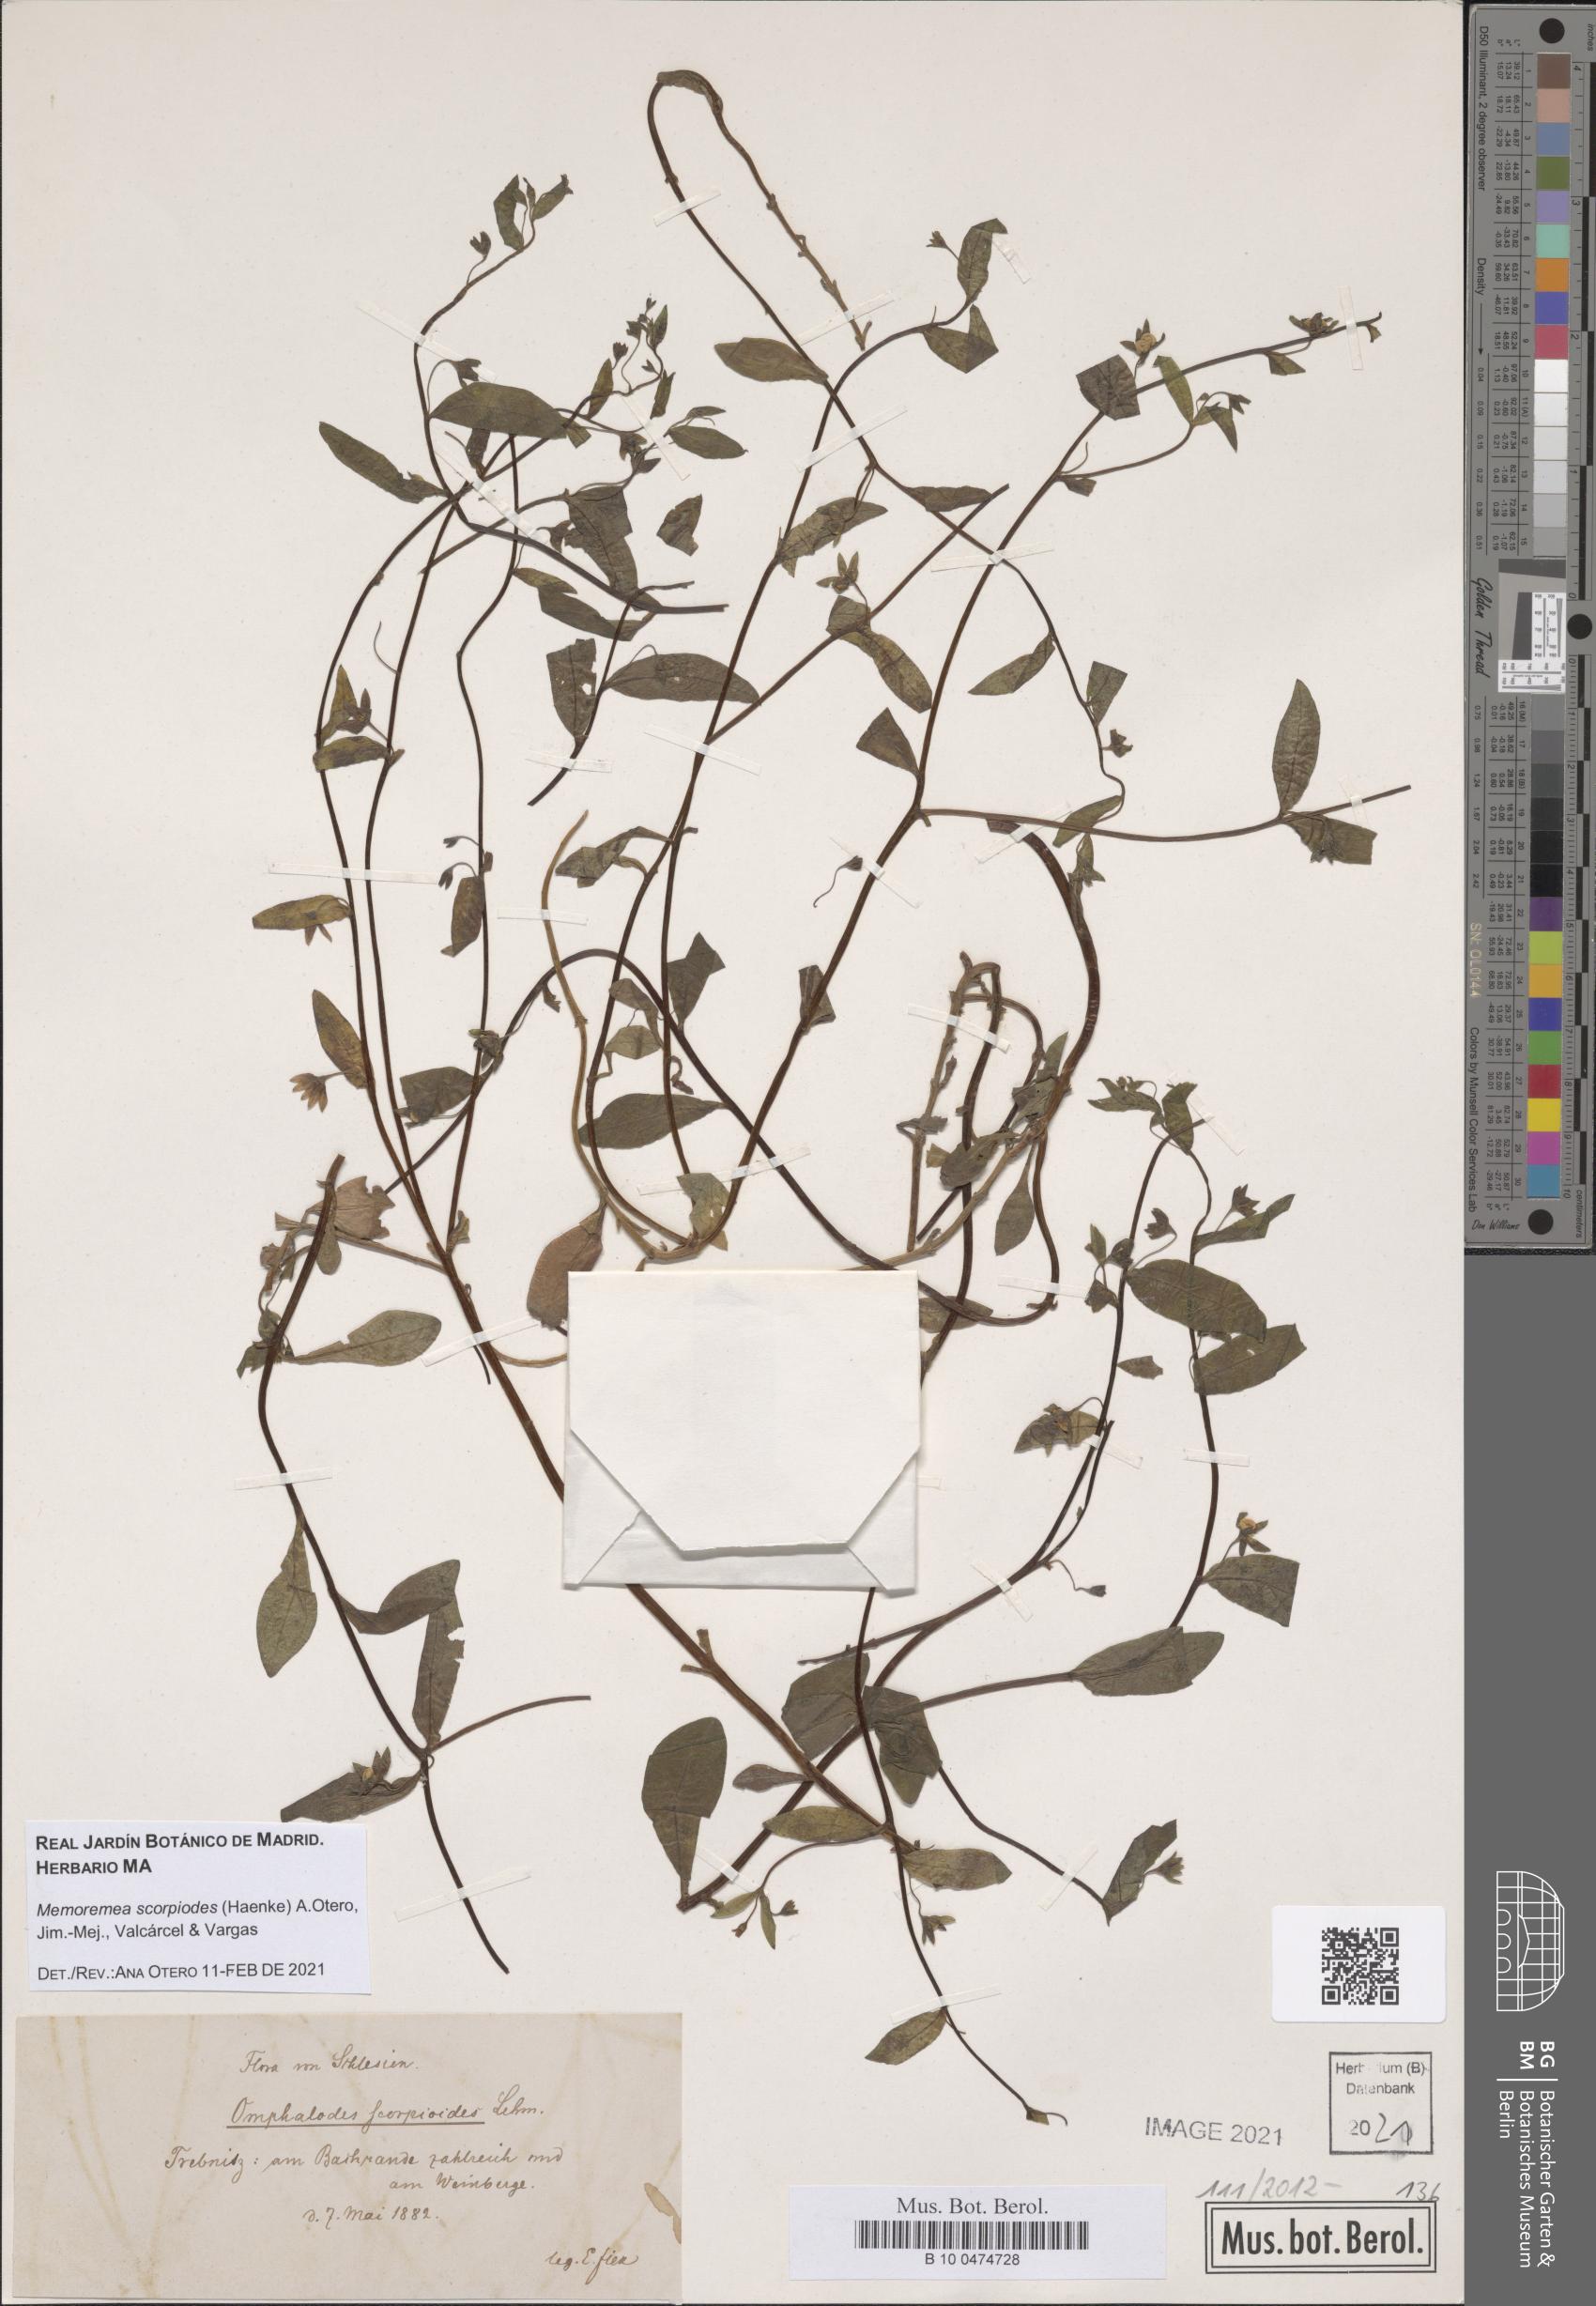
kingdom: Plantae
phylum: Tracheophyta
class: Magnoliopsida
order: Boraginales
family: Boraginaceae
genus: Memoremea
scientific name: Memoremea scorpioides
